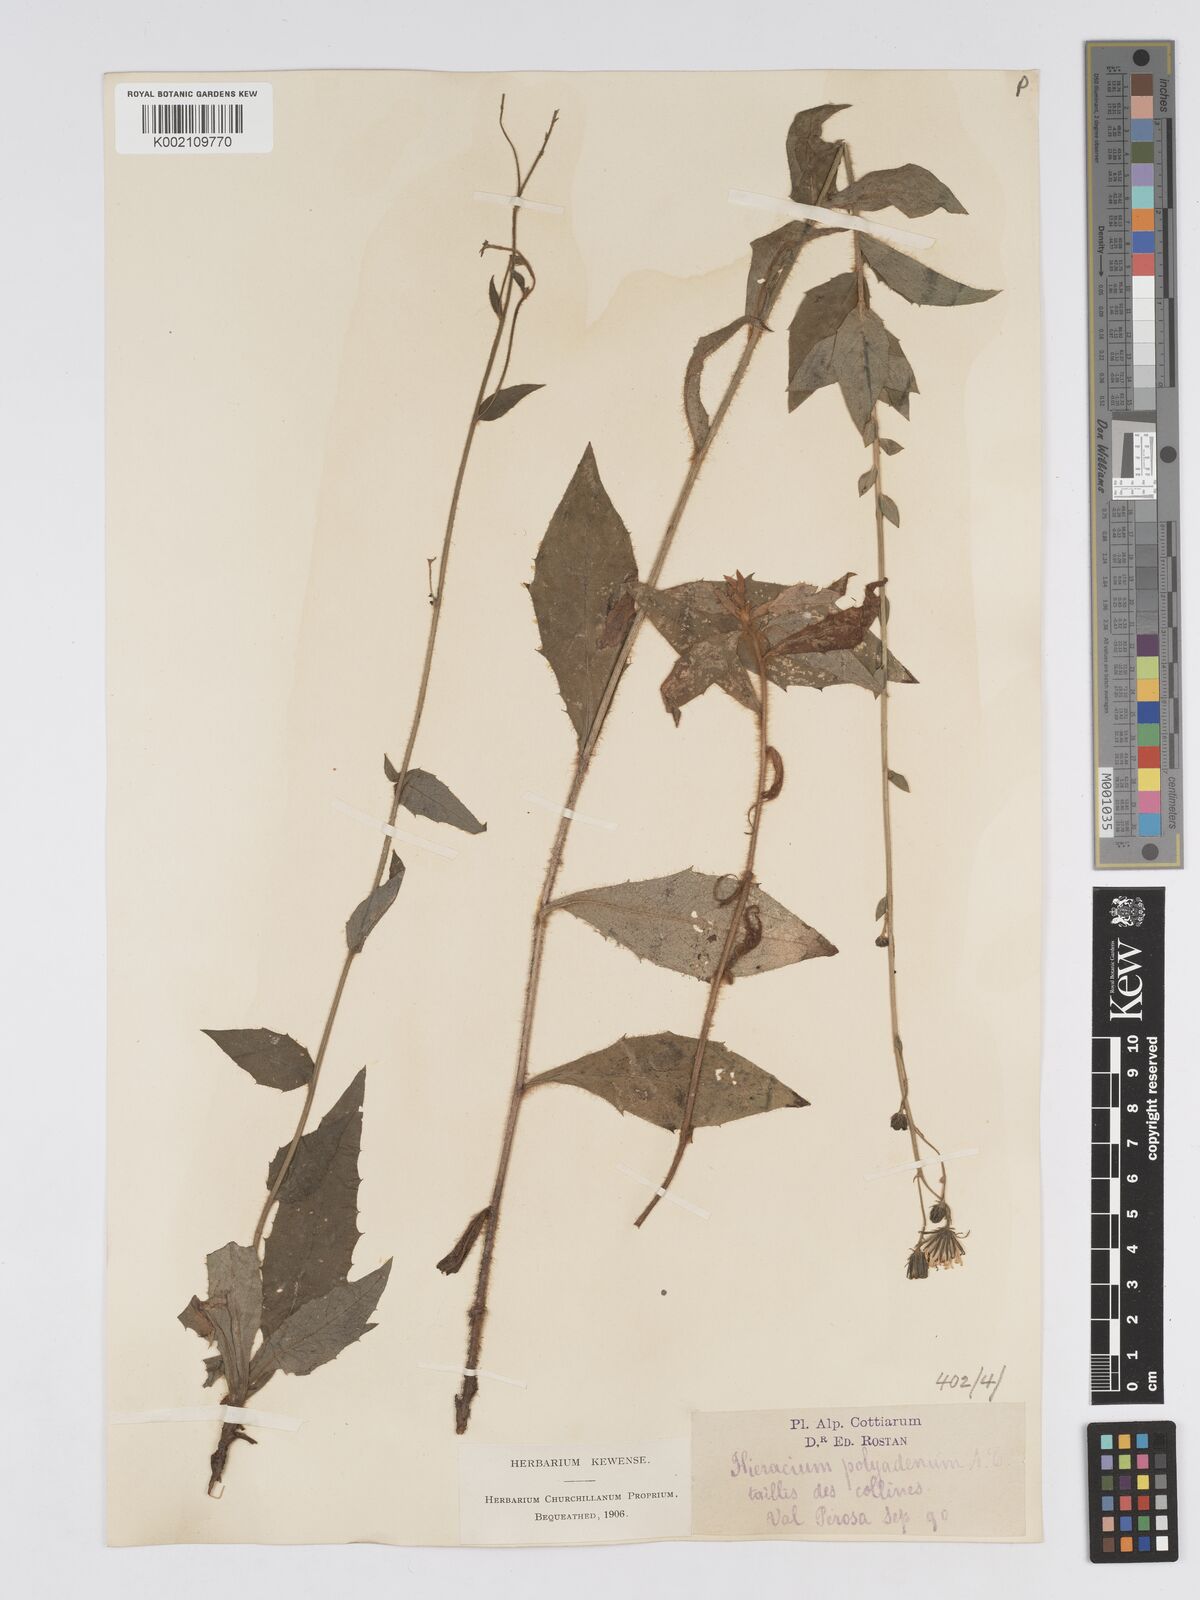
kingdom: Plantae
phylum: Tracheophyta
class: Magnoliopsida
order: Asterales
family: Asteraceae
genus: Hieracium
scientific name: Hieracium symphytaceum
